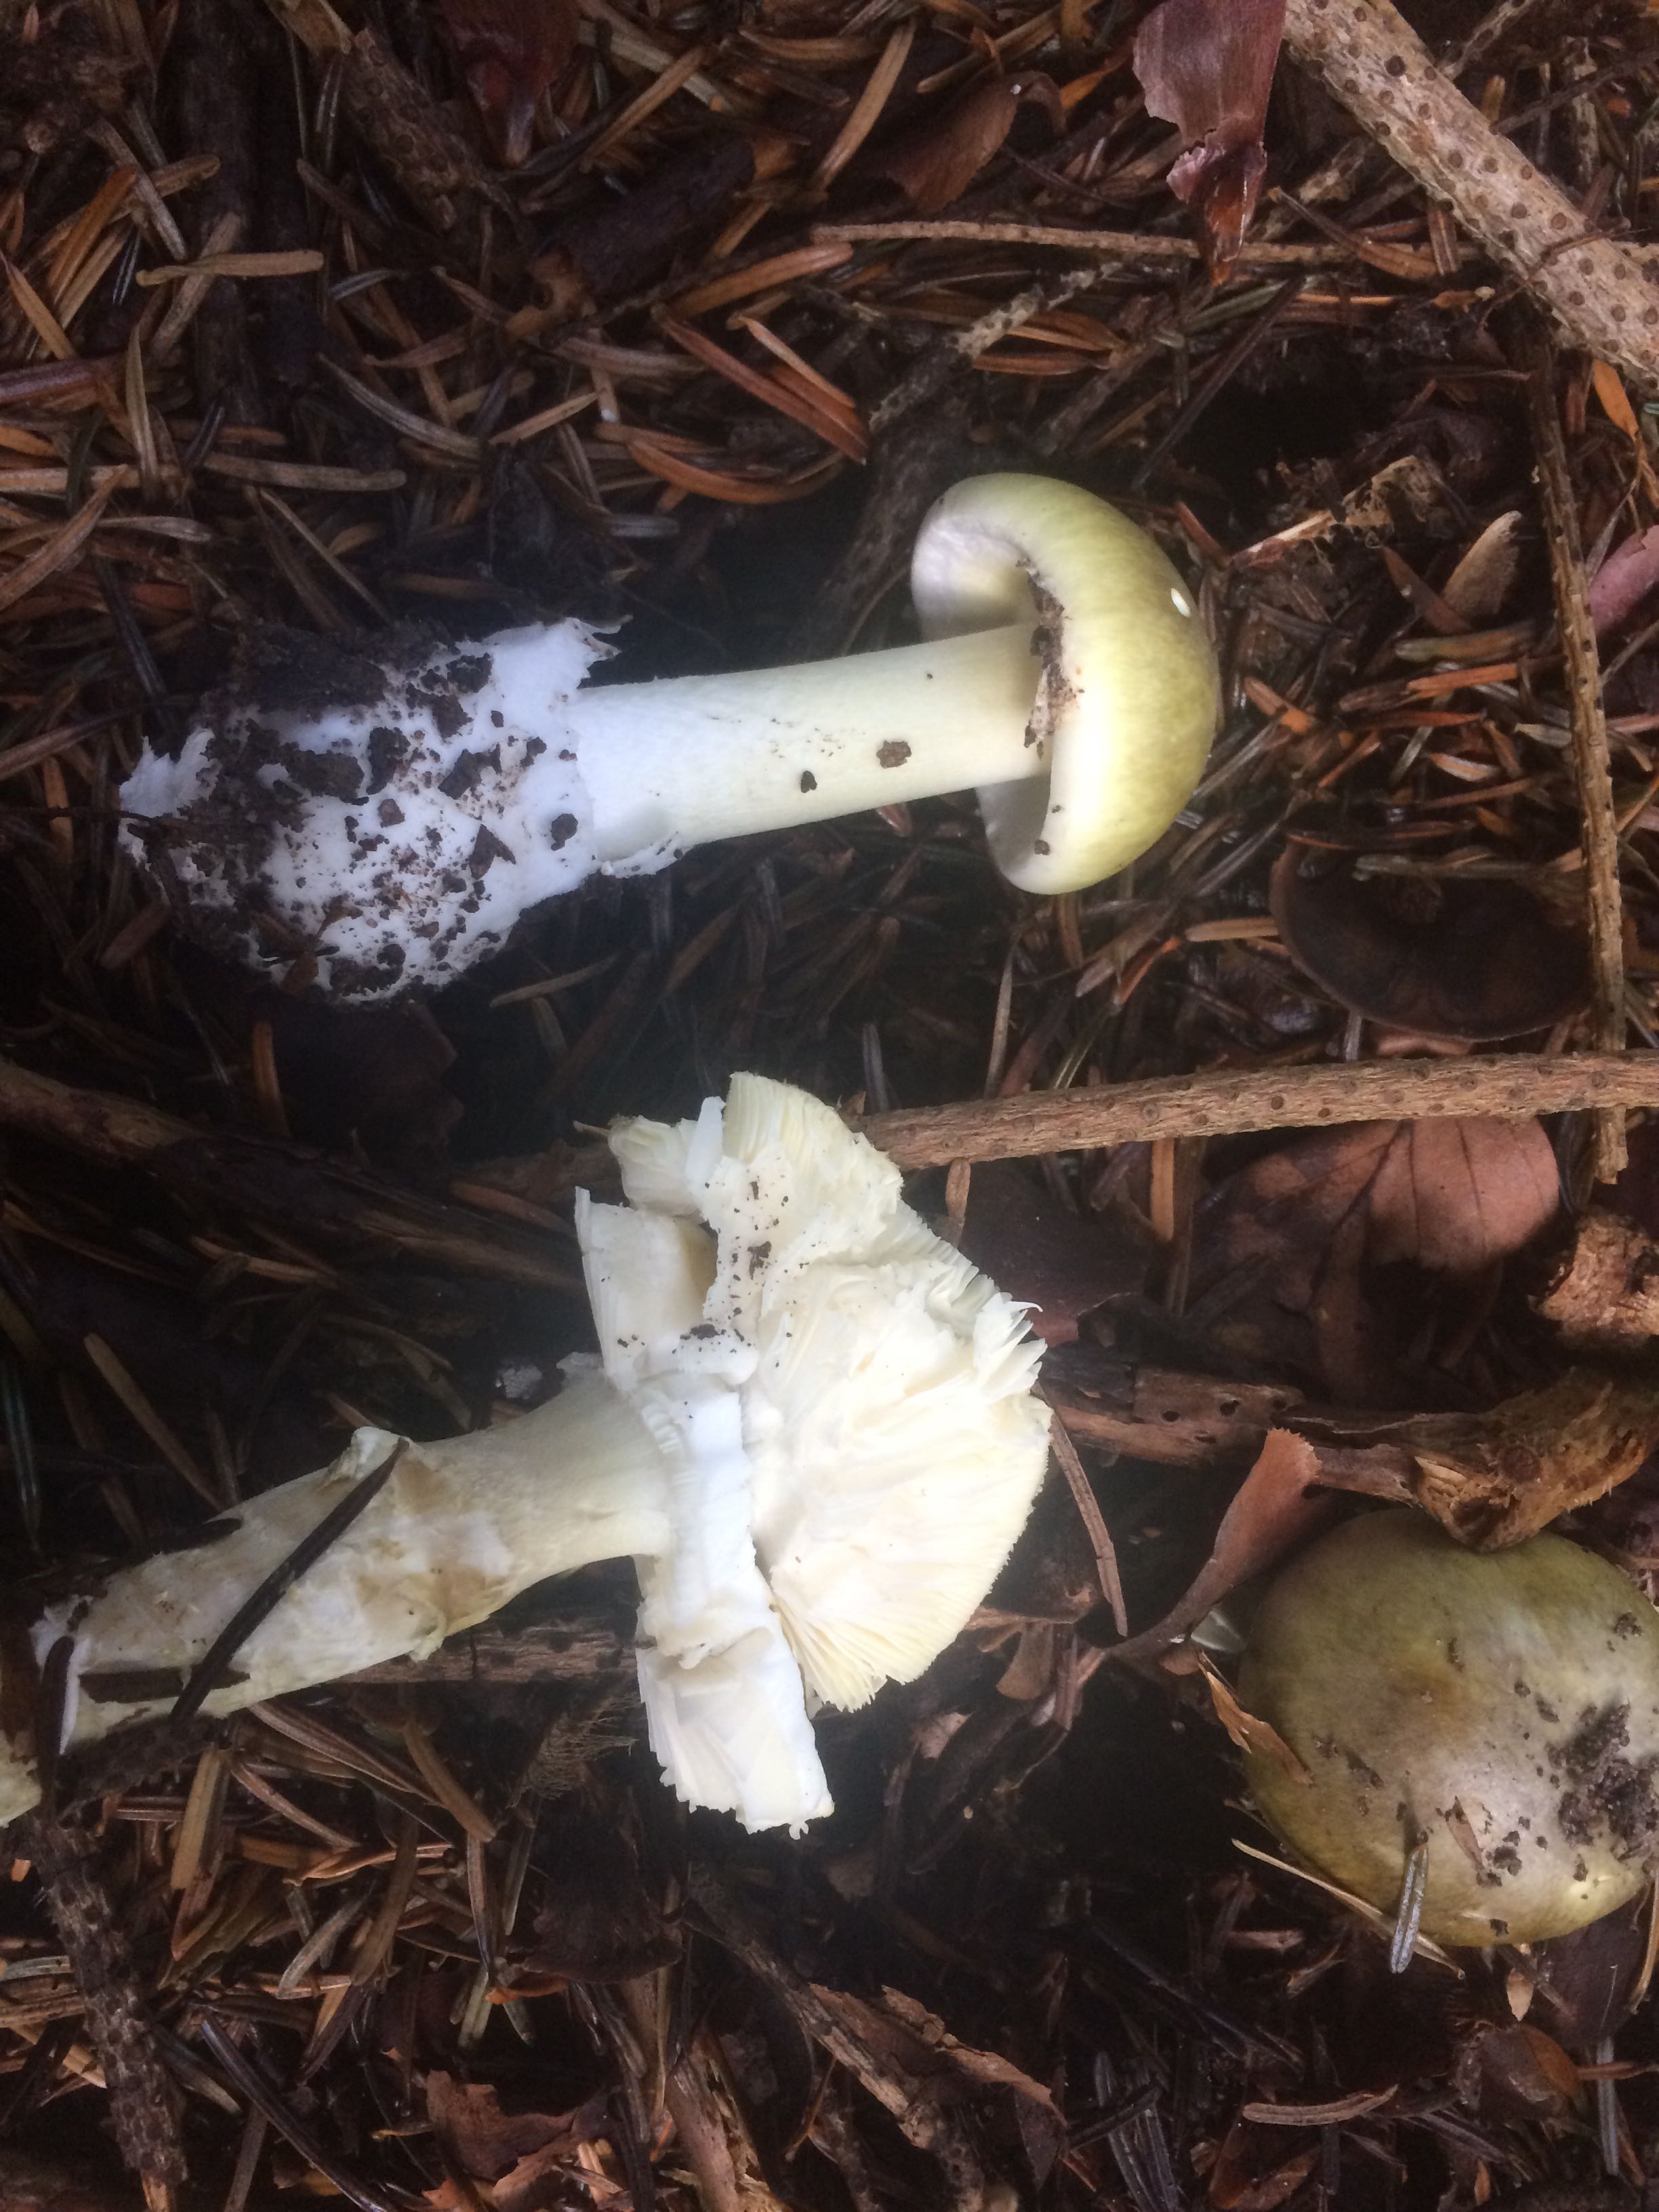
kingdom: Fungi
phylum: Basidiomycota
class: Agaricomycetes
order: Agaricales
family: Amanitaceae
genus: Amanita
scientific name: Amanita phalloides
